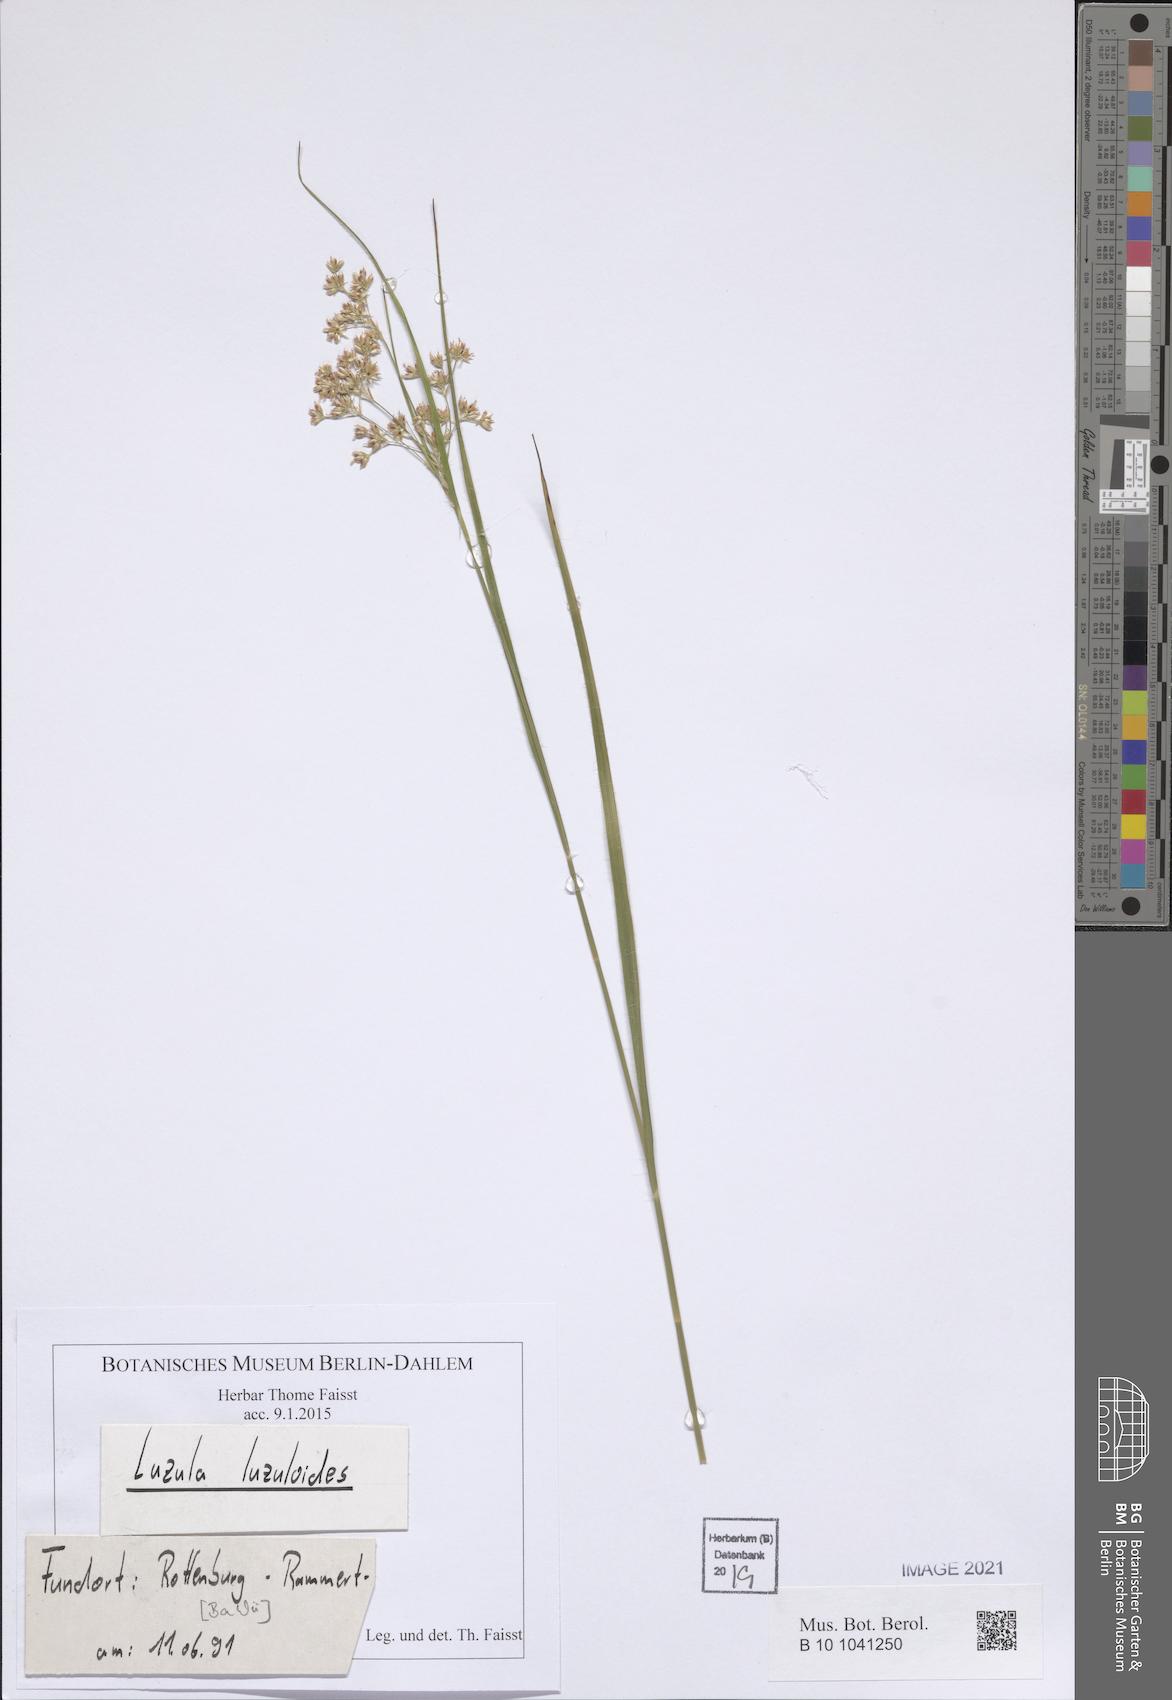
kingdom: Plantae
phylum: Tracheophyta
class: Liliopsida
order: Poales
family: Juncaceae
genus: Luzula
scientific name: Luzula luzuloides
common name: White wood-rush
